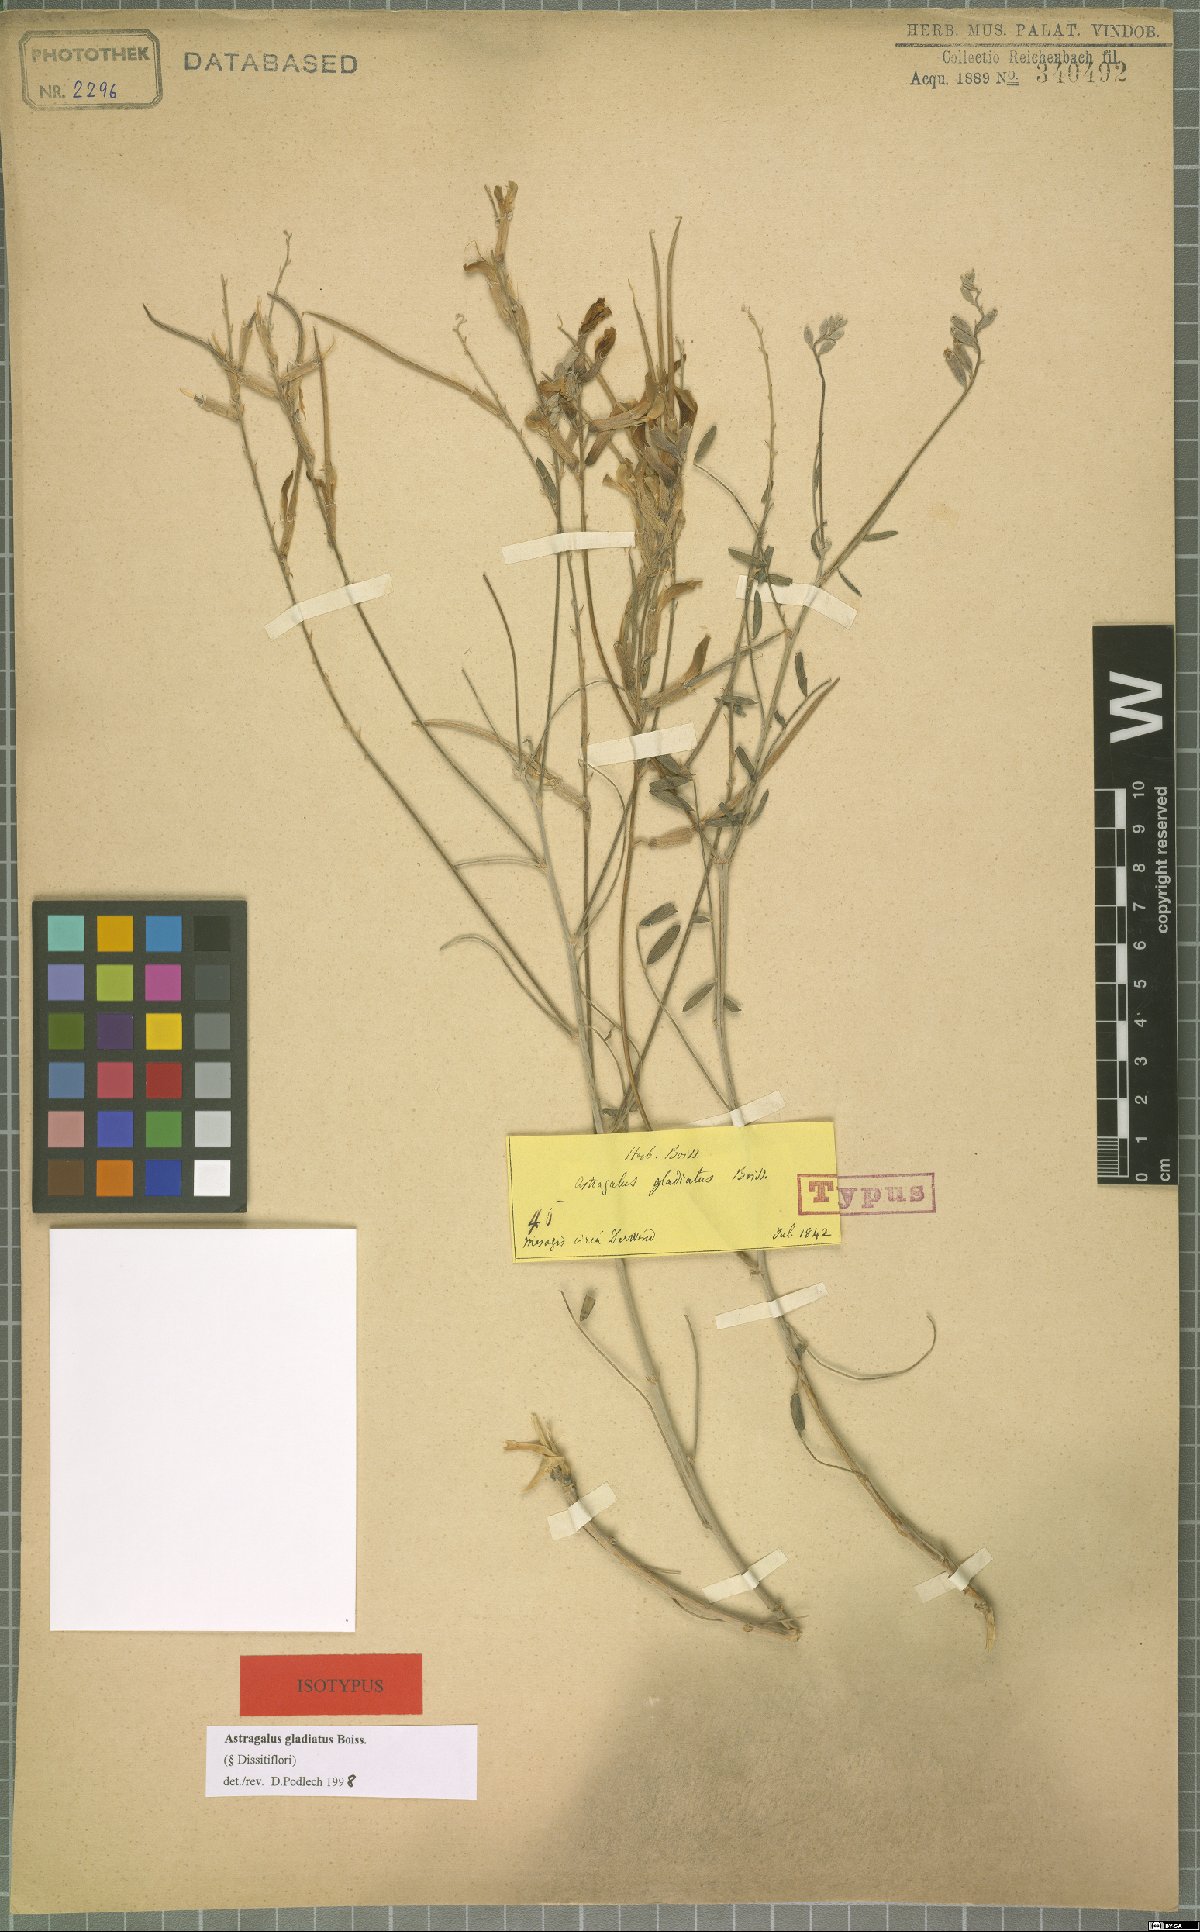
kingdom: Plantae
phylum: Tracheophyta
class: Magnoliopsida
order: Fabales
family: Fabaceae
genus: Astragalus
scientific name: Astragalus gladiatus
